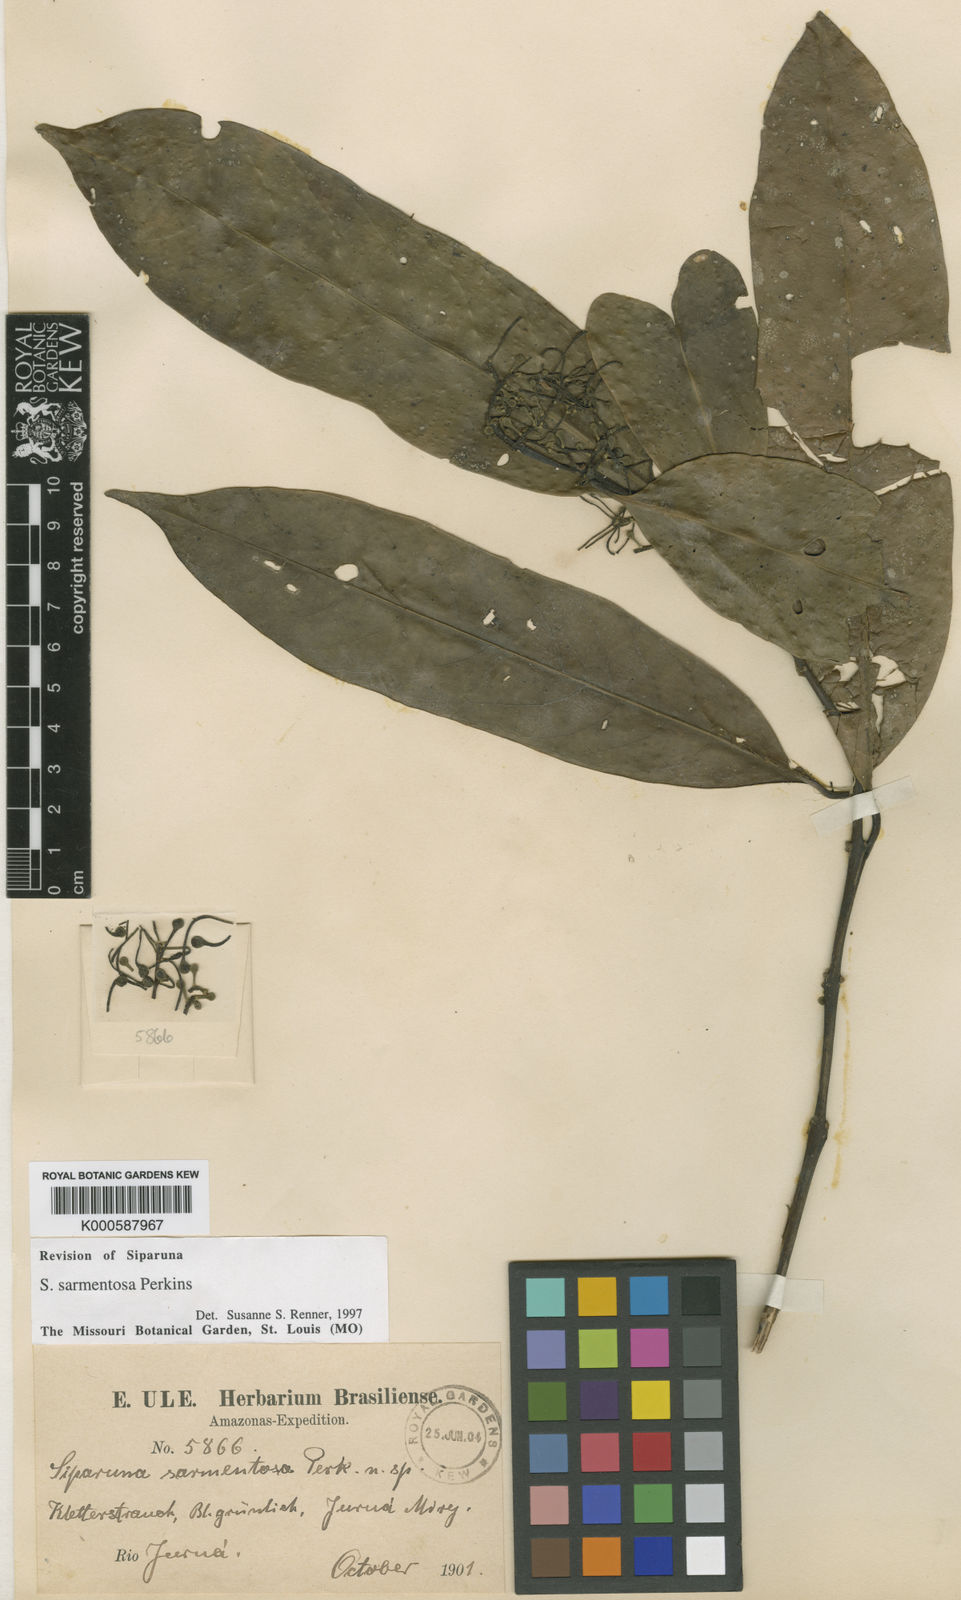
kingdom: Plantae
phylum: Tracheophyta
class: Magnoliopsida
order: Laurales
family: Siparunaceae
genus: Siparuna
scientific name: Siparuna cristata
